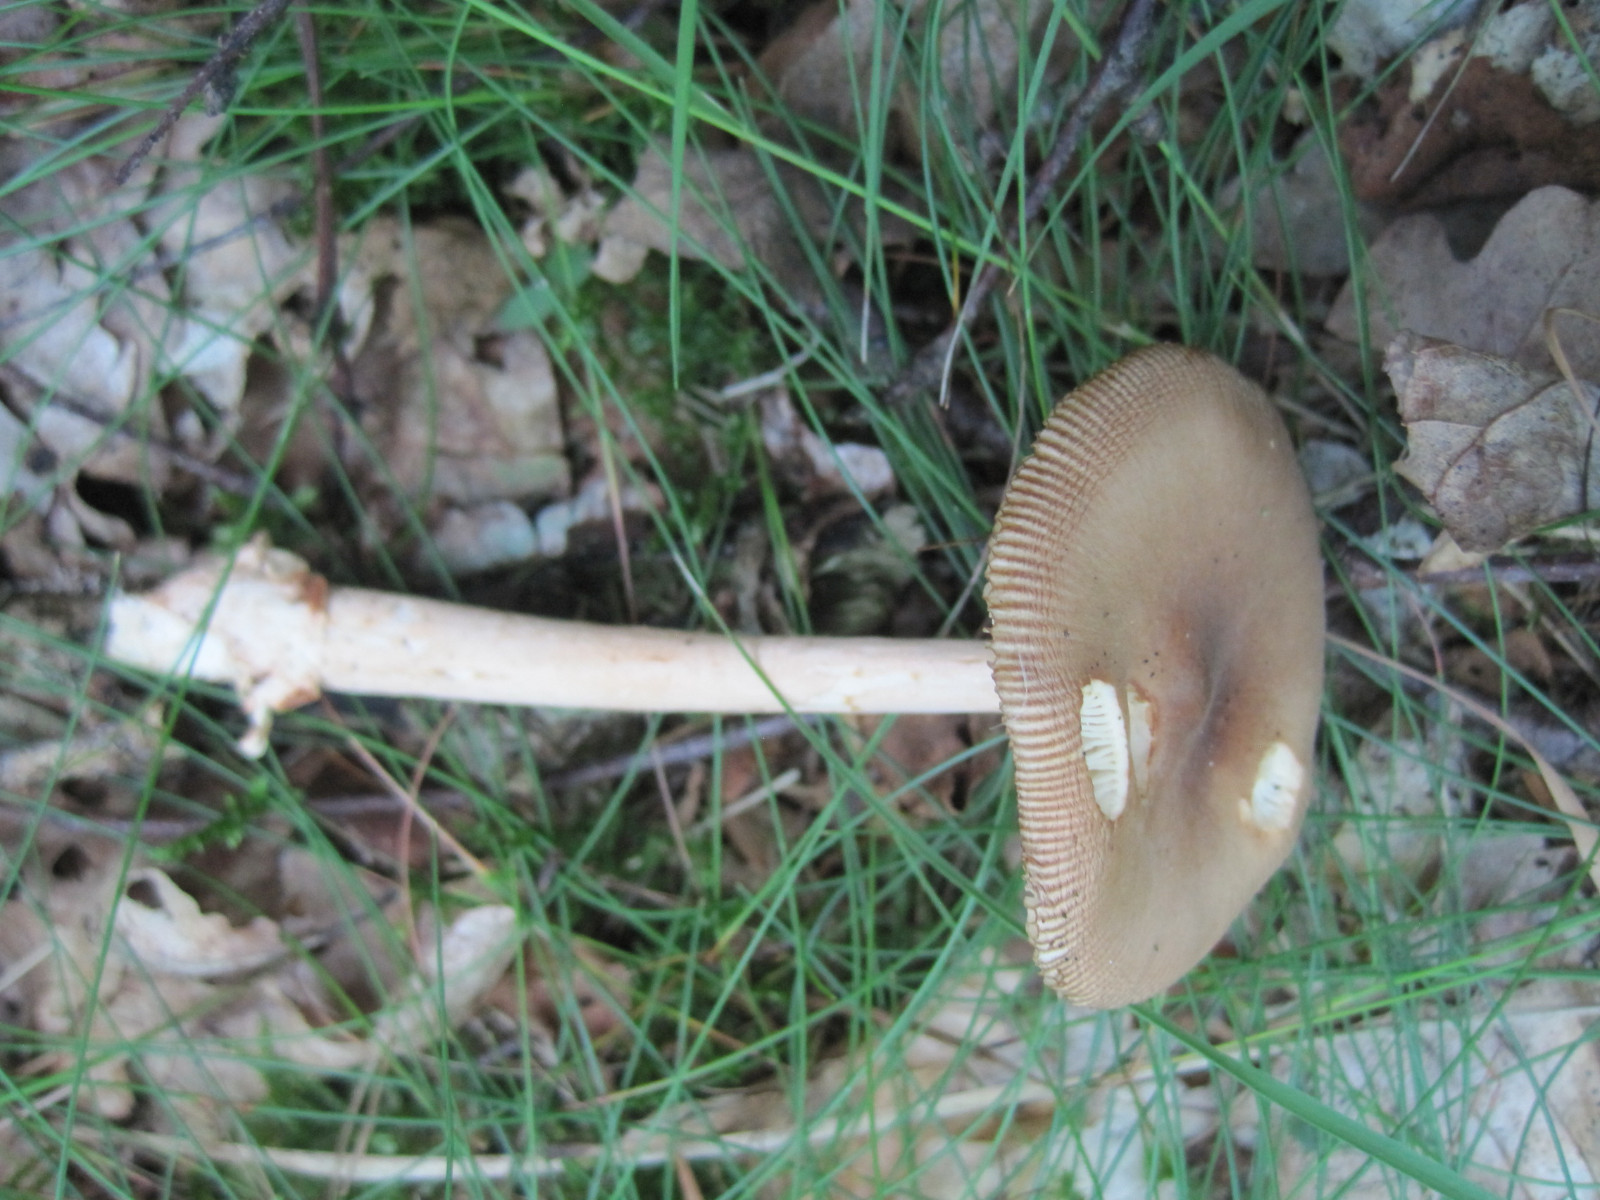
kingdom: Fungi
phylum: Basidiomycota
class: Agaricomycetes
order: Agaricales
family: Amanitaceae
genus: Amanita
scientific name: Amanita fulva
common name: brun kam-fluesvamp
